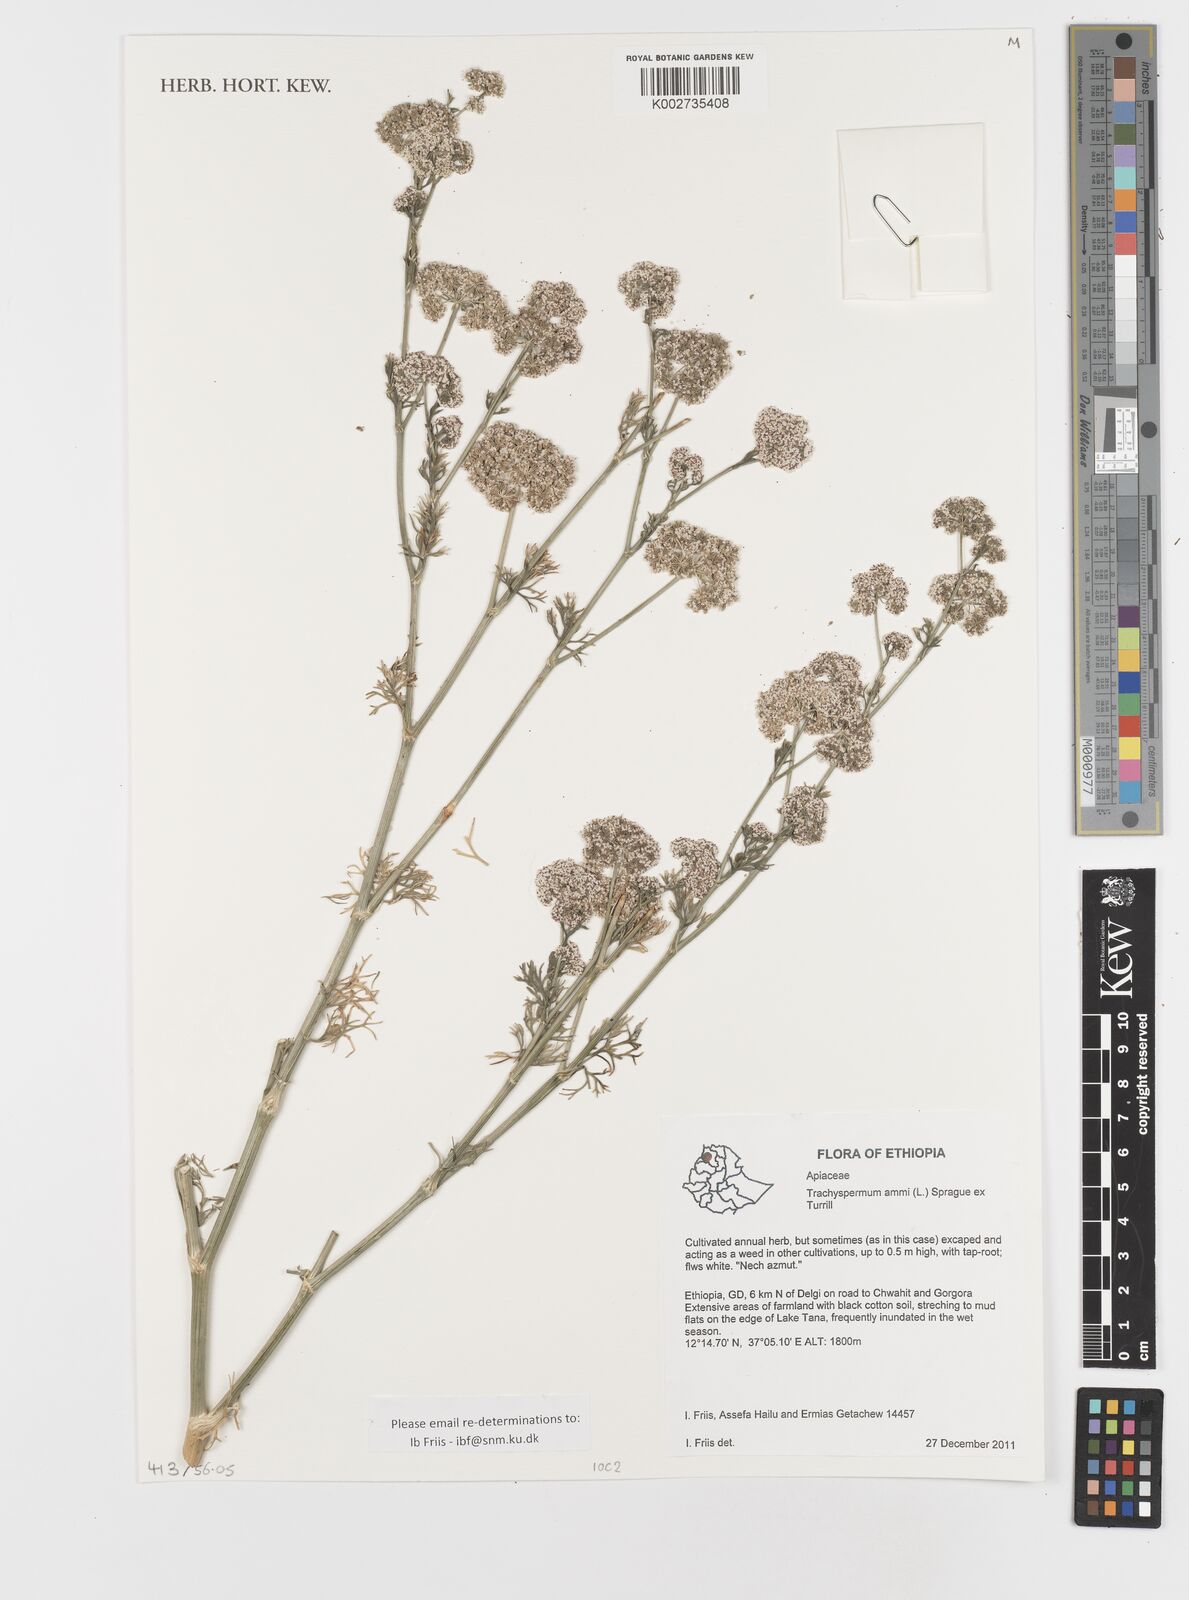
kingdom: Plantae
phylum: Tracheophyta
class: Magnoliopsida
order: Apiales
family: Apiaceae
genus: Trachyspermum
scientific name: Trachyspermum ammi
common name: Ajowan
